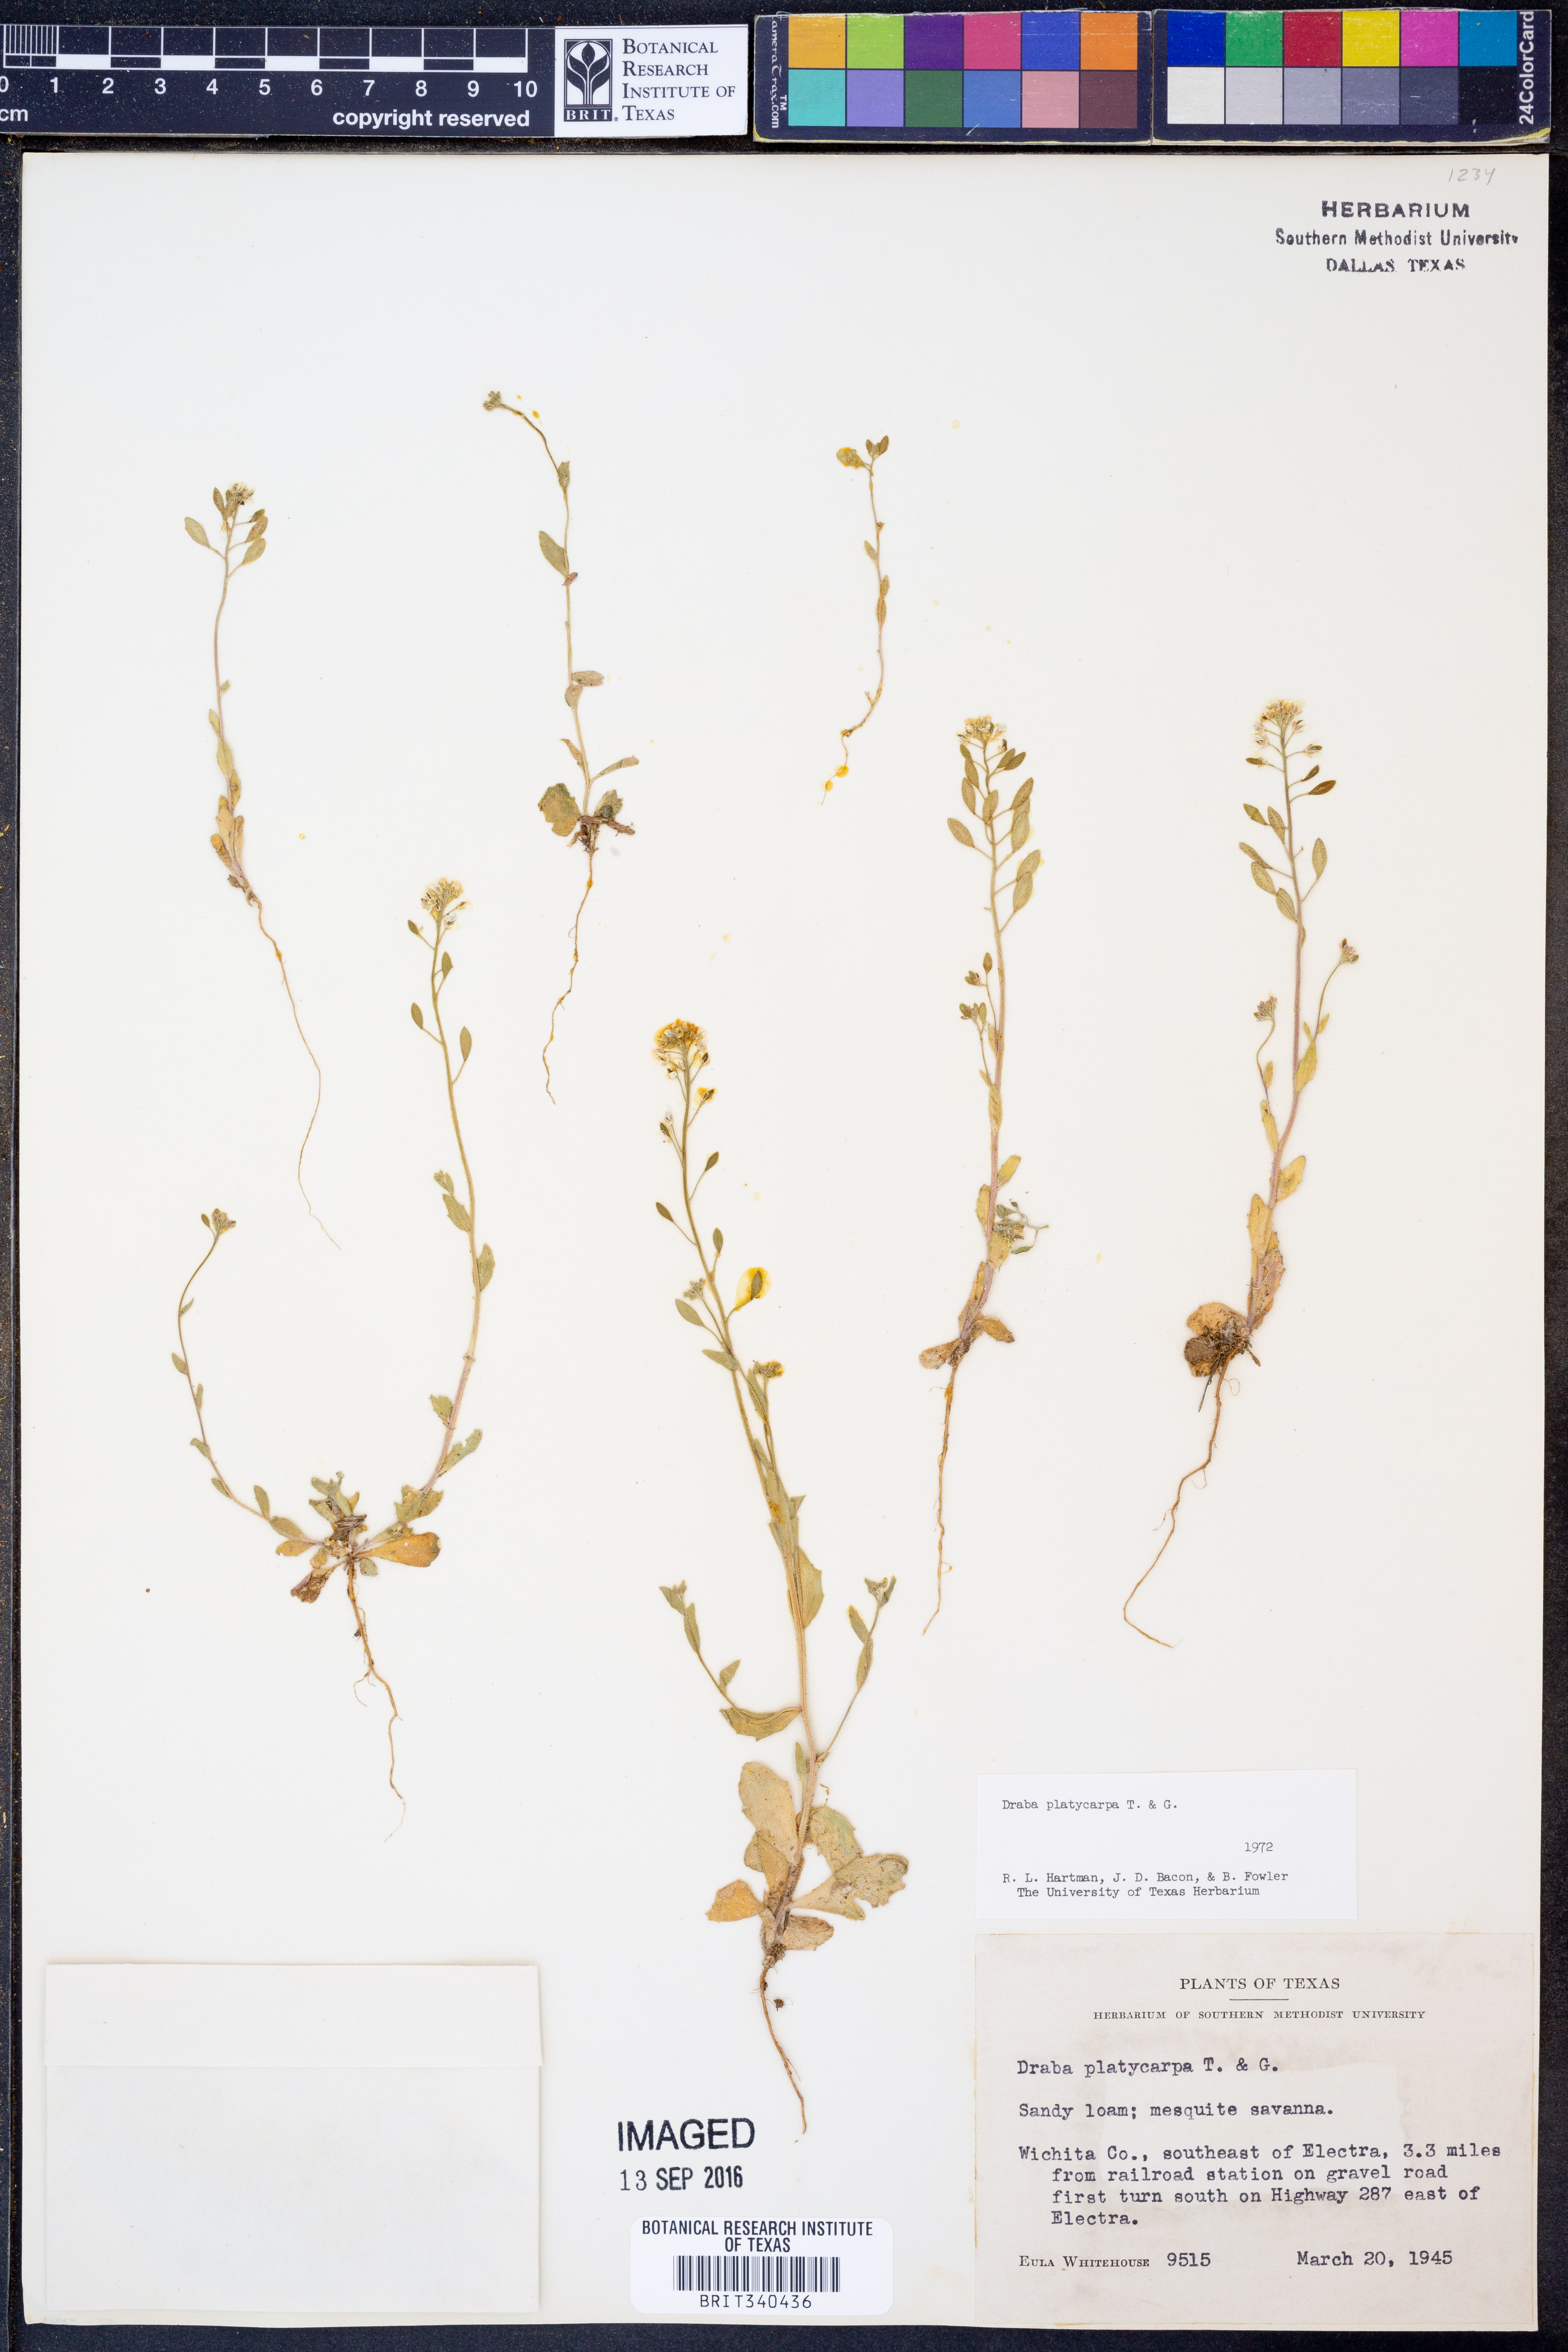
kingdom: Plantae
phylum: Tracheophyta
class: Magnoliopsida
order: Brassicales
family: Brassicaceae
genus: Tomostima
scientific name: Tomostima platycarpa
